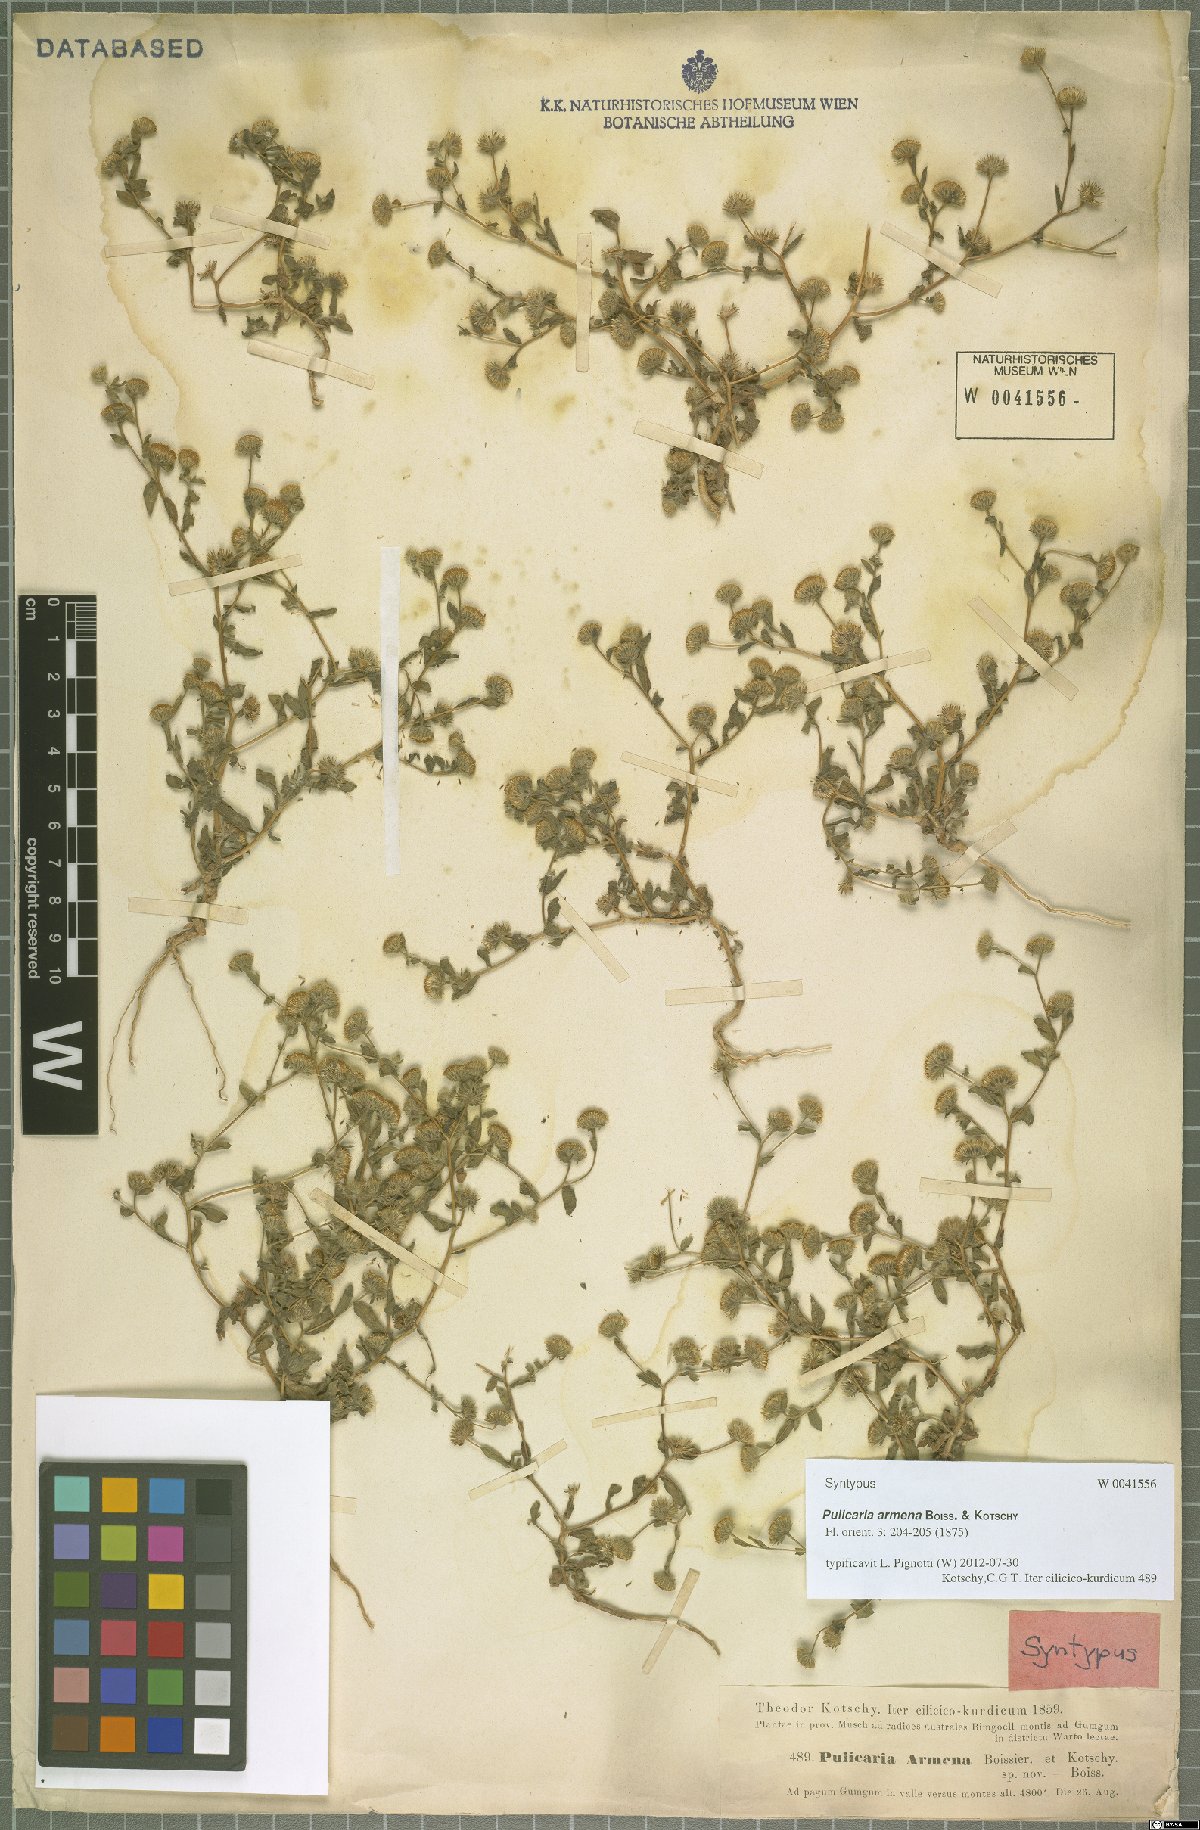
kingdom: Plantae
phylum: Tracheophyta
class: Magnoliopsida
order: Asterales
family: Asteraceae
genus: Pulicaria
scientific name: Pulicaria armena
